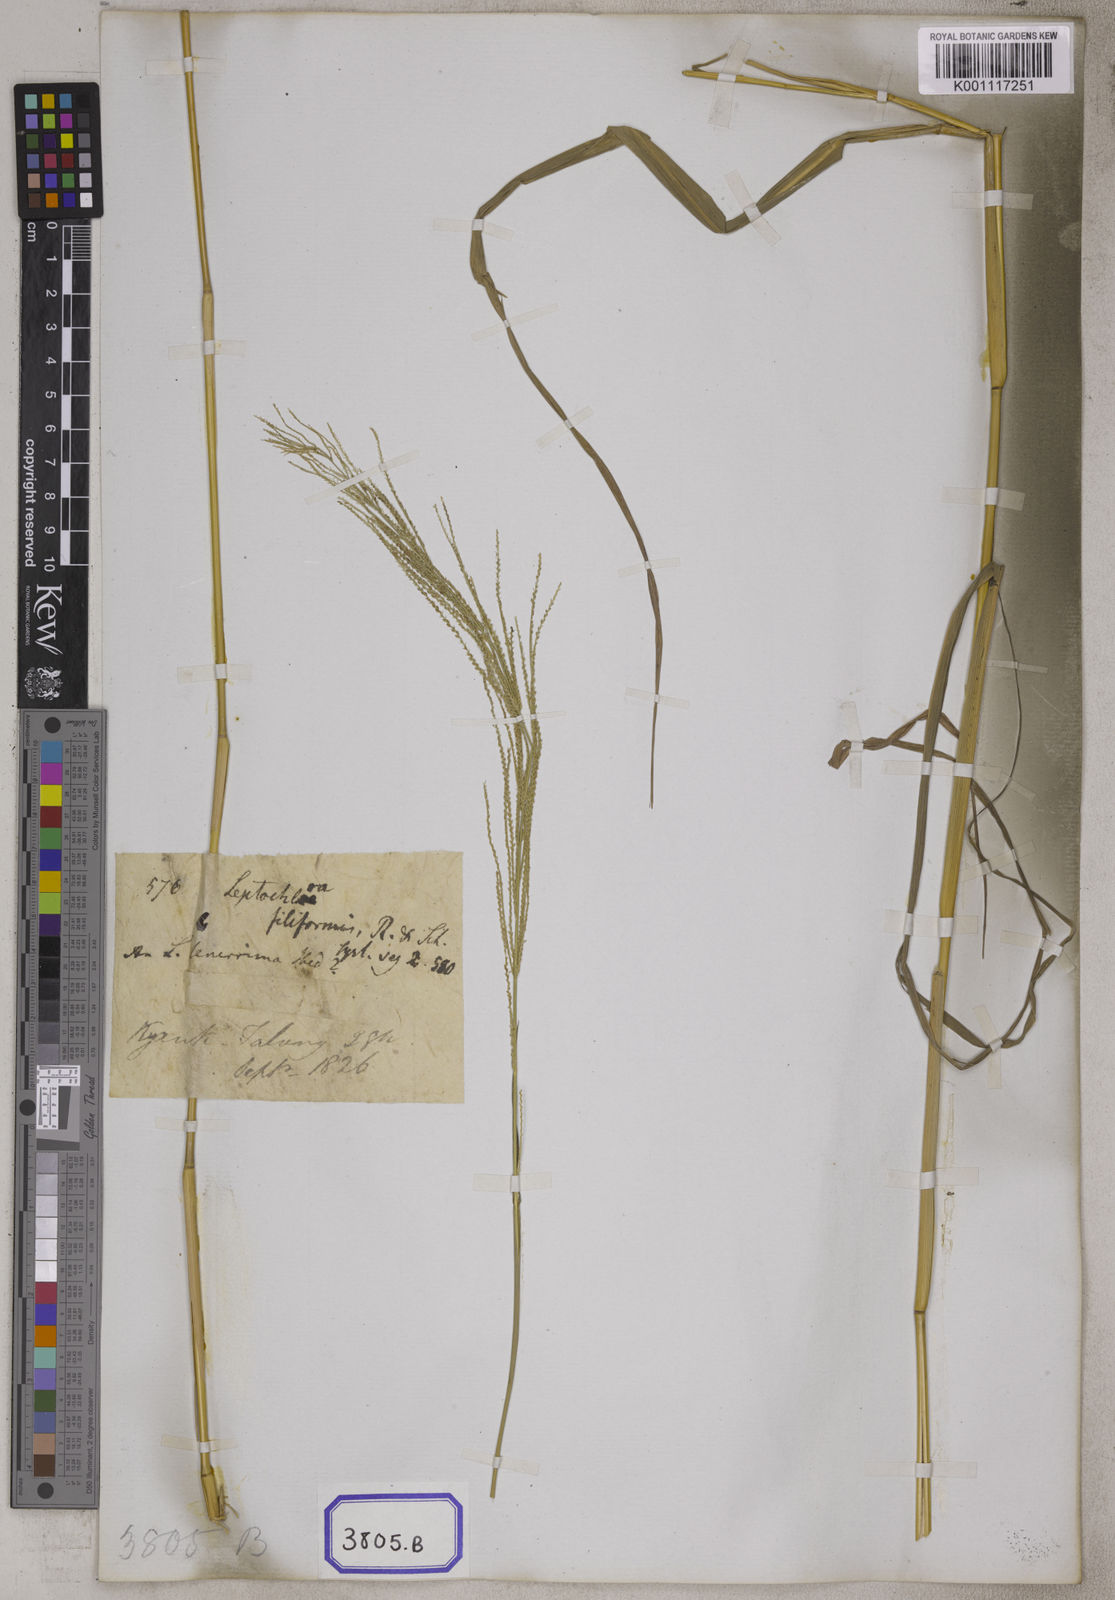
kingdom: Plantae
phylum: Tracheophyta
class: Liliopsida
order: Poales
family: Poaceae
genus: Leptochloa
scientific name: Leptochloa
